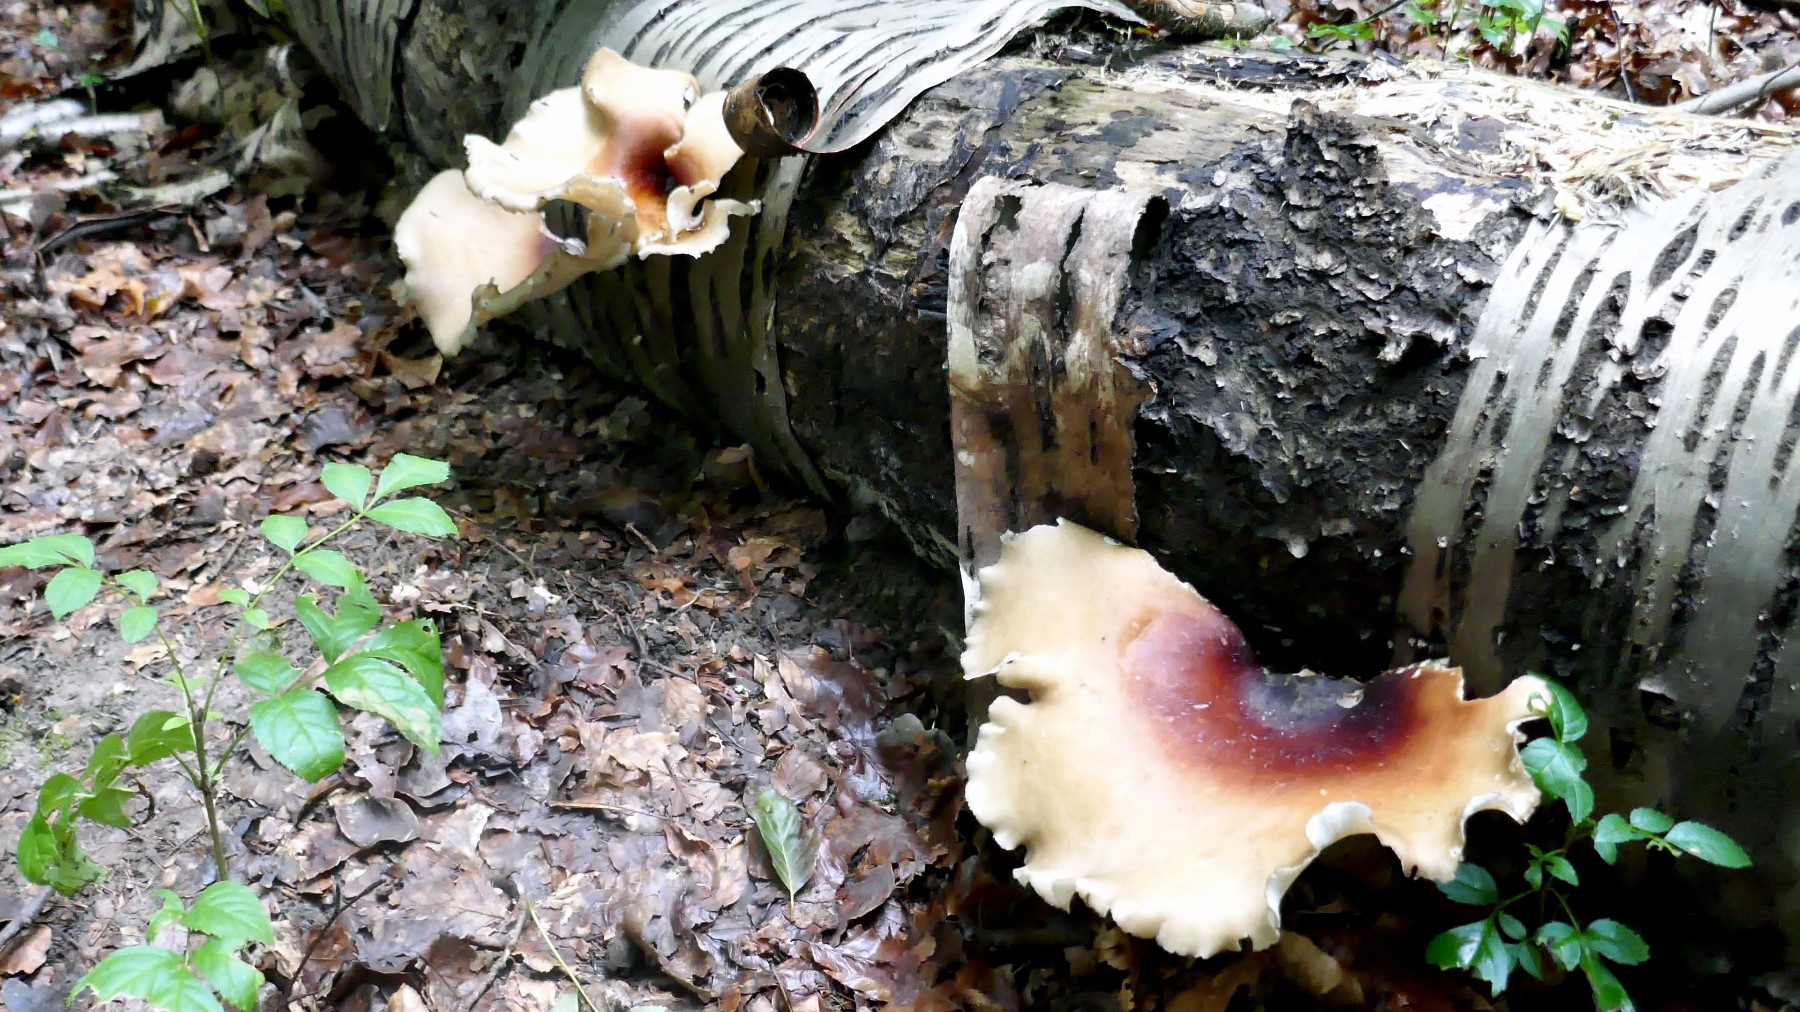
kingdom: Fungi
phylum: Basidiomycota
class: Agaricomycetes
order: Polyporales
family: Polyporaceae
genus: Picipes
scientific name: Picipes badius
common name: kastaniebrun stilkporesvamp
